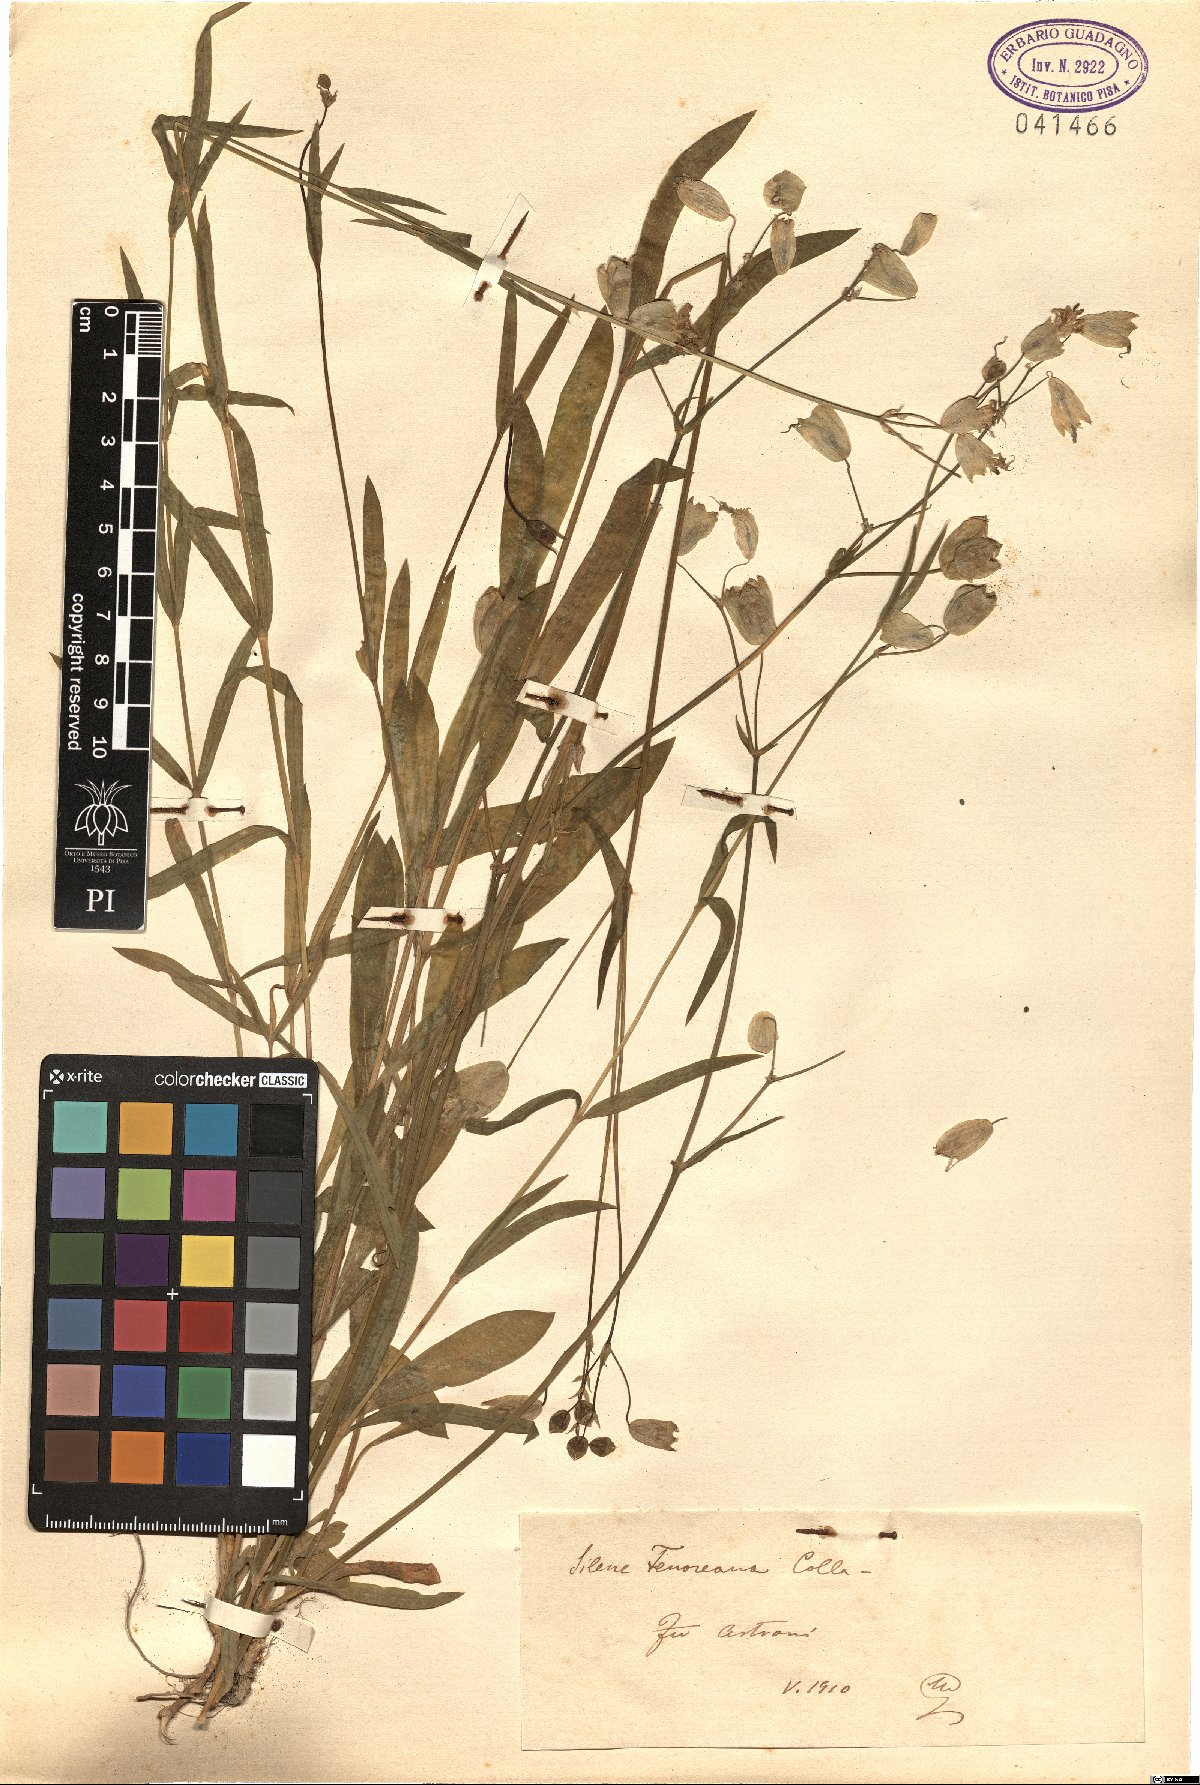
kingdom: Plantae
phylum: Tracheophyta
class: Magnoliopsida
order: Caryophyllales
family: Caryophyllaceae
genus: Silene
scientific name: Silene vulgaris
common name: Bladder campion
